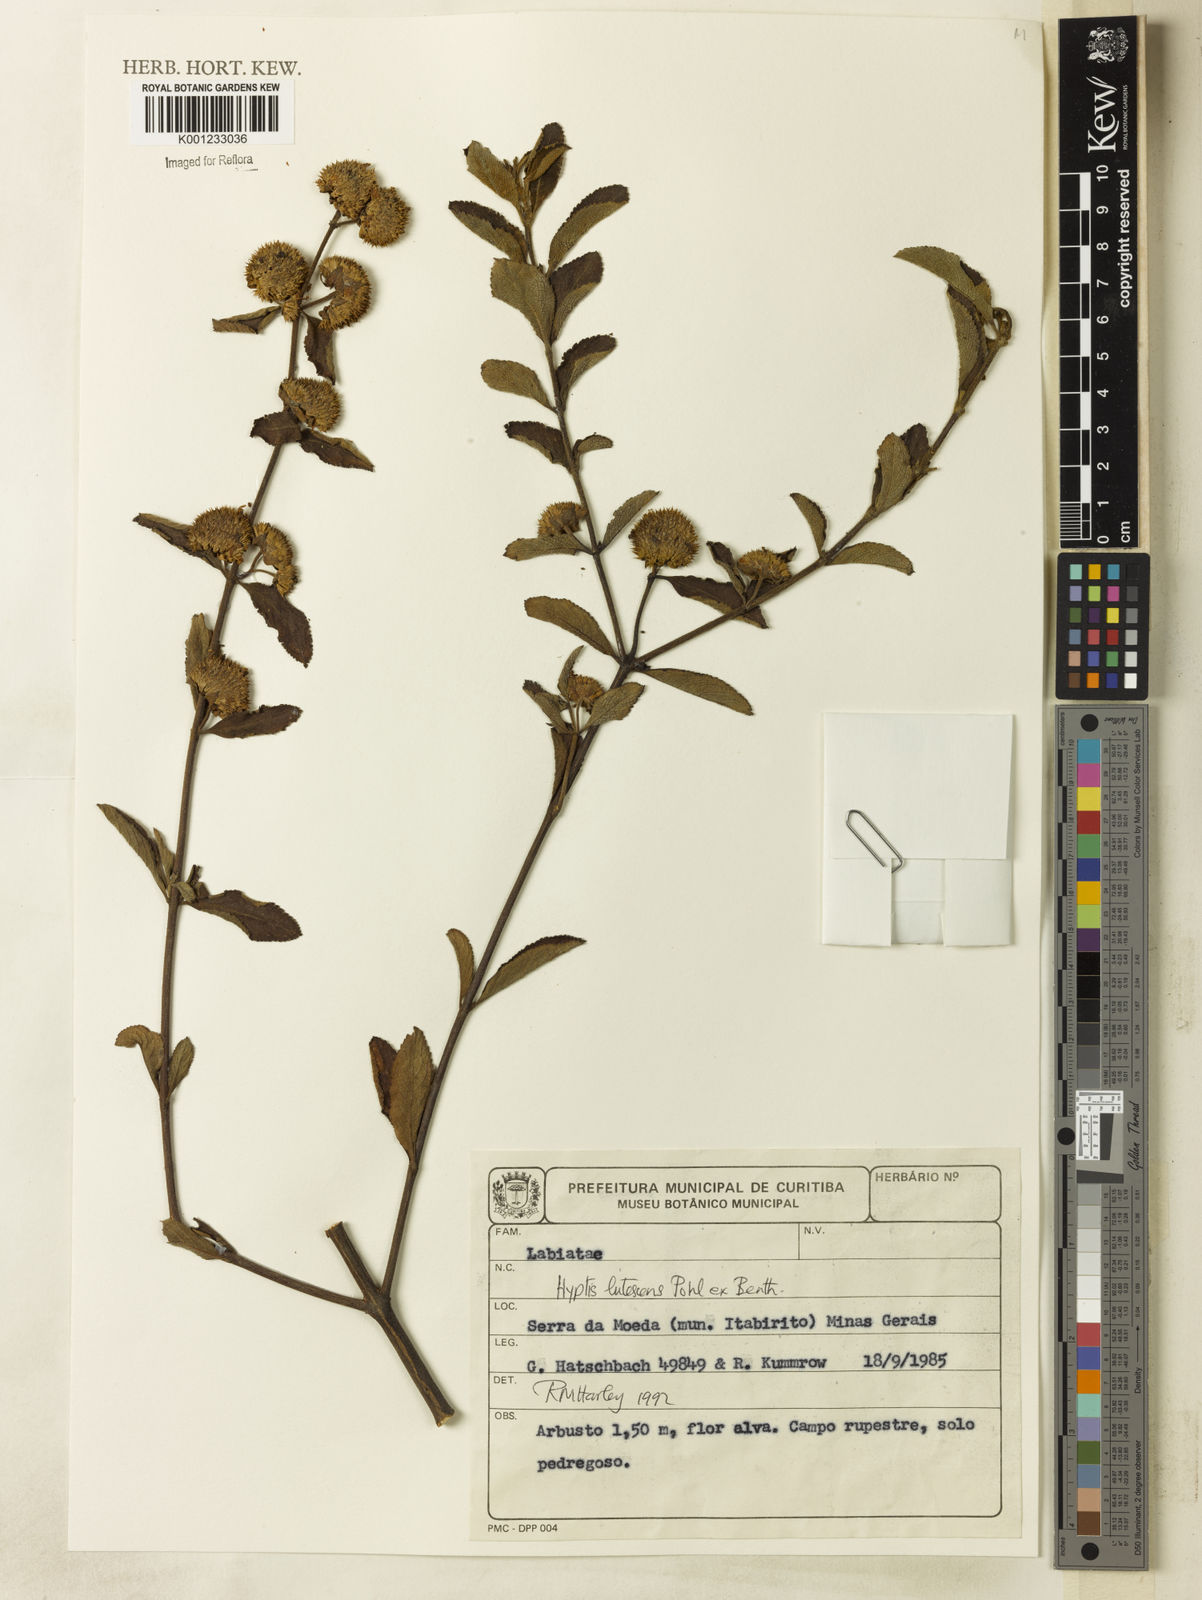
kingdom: Plantae
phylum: Tracheophyta
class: Magnoliopsida
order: Lamiales
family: Lamiaceae
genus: Hyptis
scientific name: Hyptis lutescens
